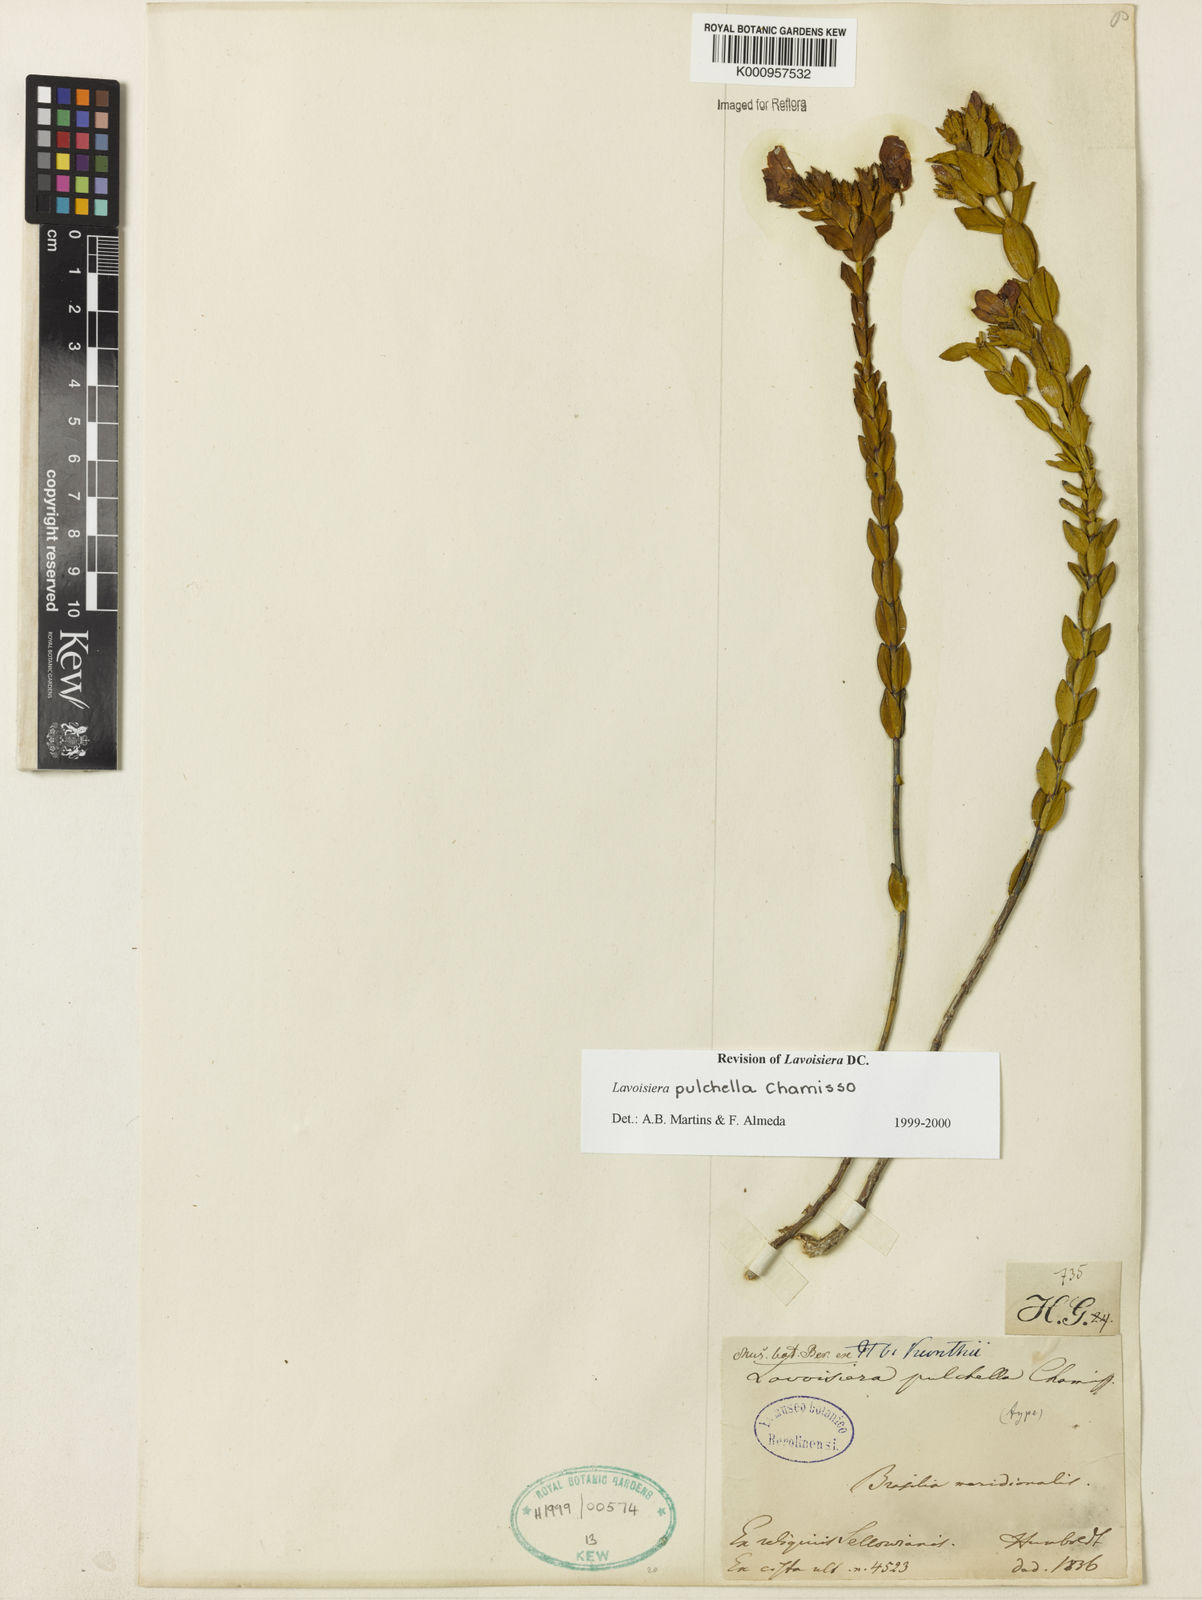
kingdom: Plantae
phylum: Tracheophyta
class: Magnoliopsida
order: Myrtales
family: Melastomataceae
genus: Microlicia
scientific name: Microlicia australis
